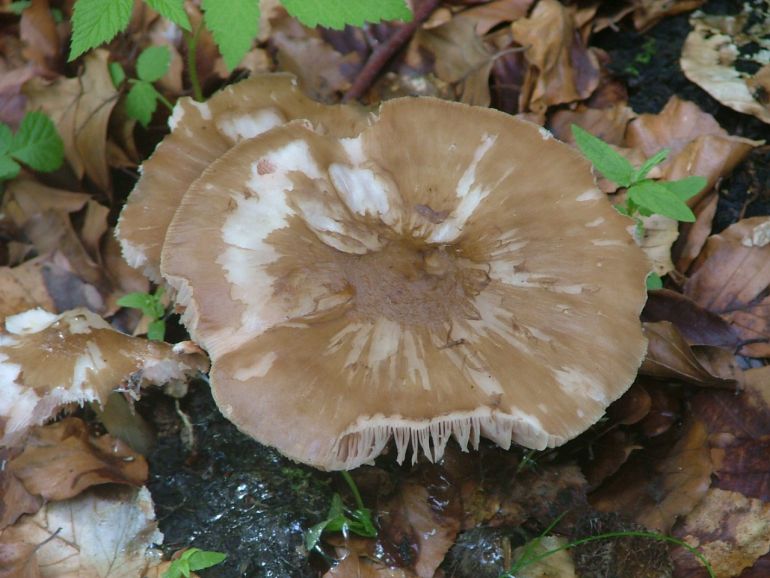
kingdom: Fungi
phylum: Basidiomycota
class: Agaricomycetes
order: Agaricales
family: Pluteaceae
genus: Pluteus
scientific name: Pluteus cervinus
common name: sodfarvet skærmhat
